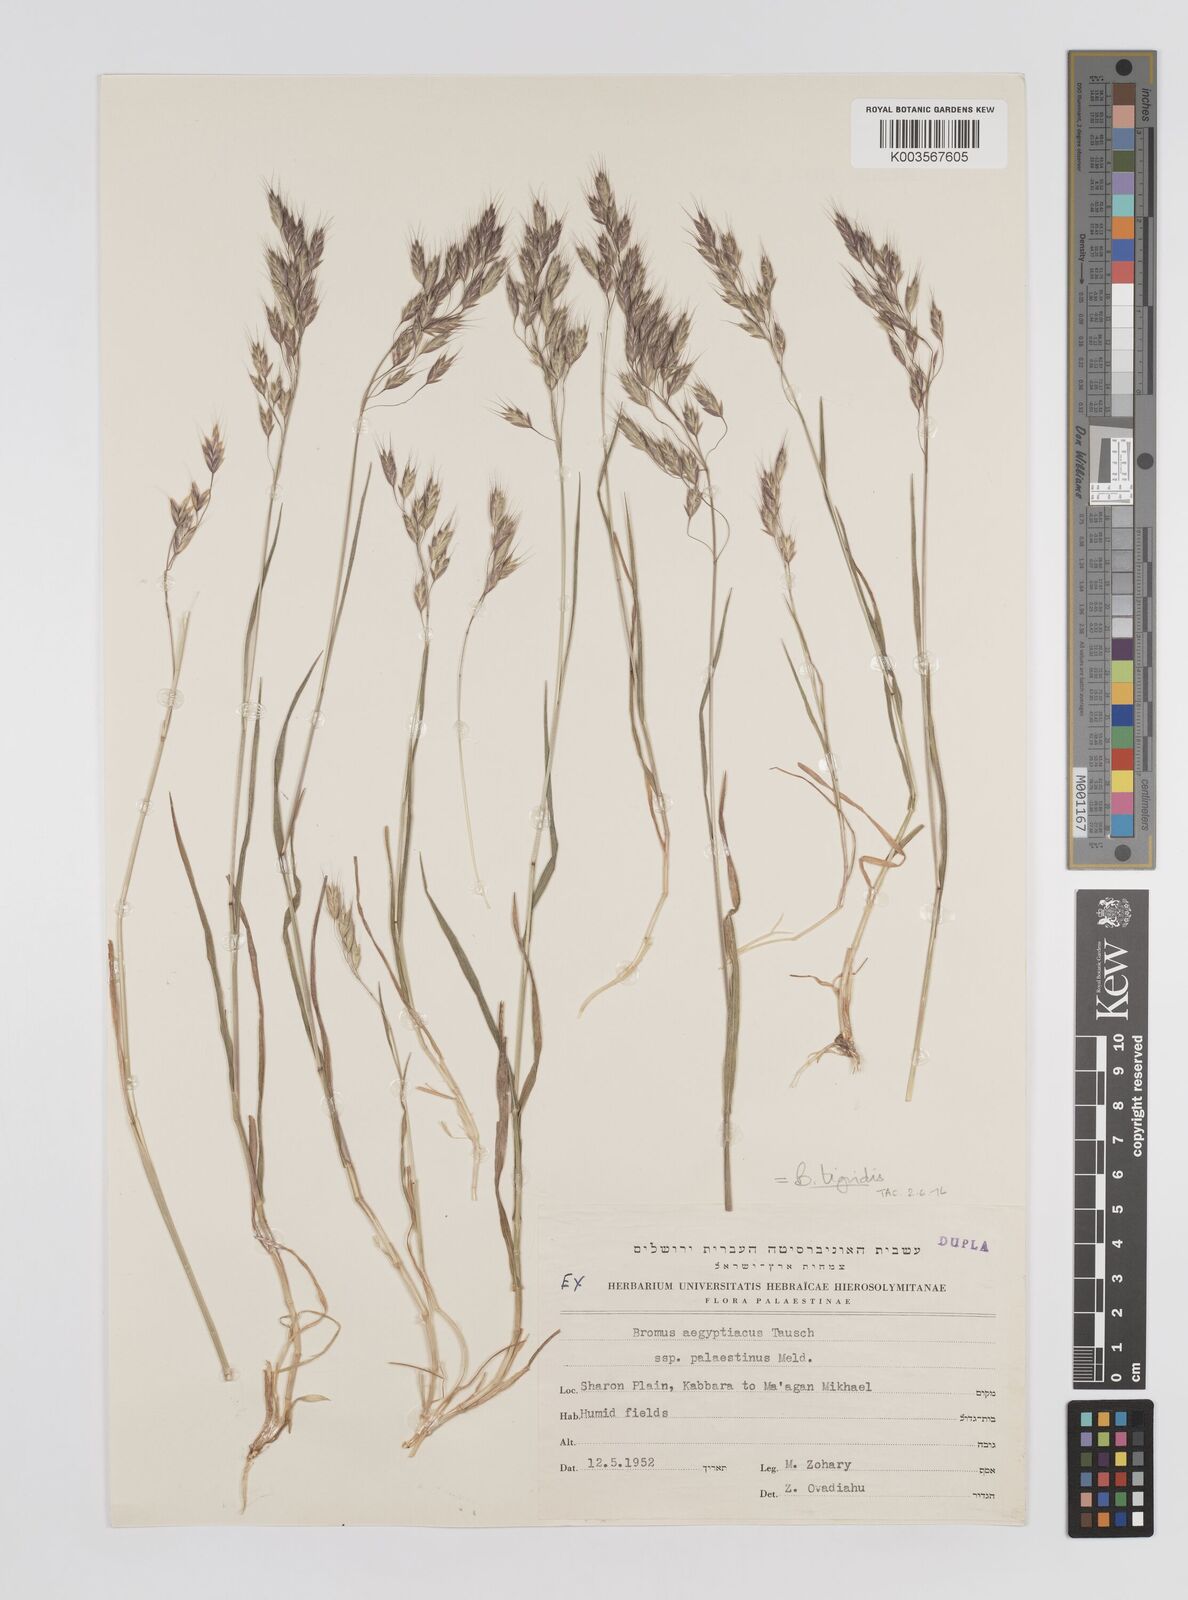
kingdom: Plantae
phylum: Tracheophyta
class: Liliopsida
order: Poales
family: Poaceae
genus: Bromus
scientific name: Bromus brachystachys
